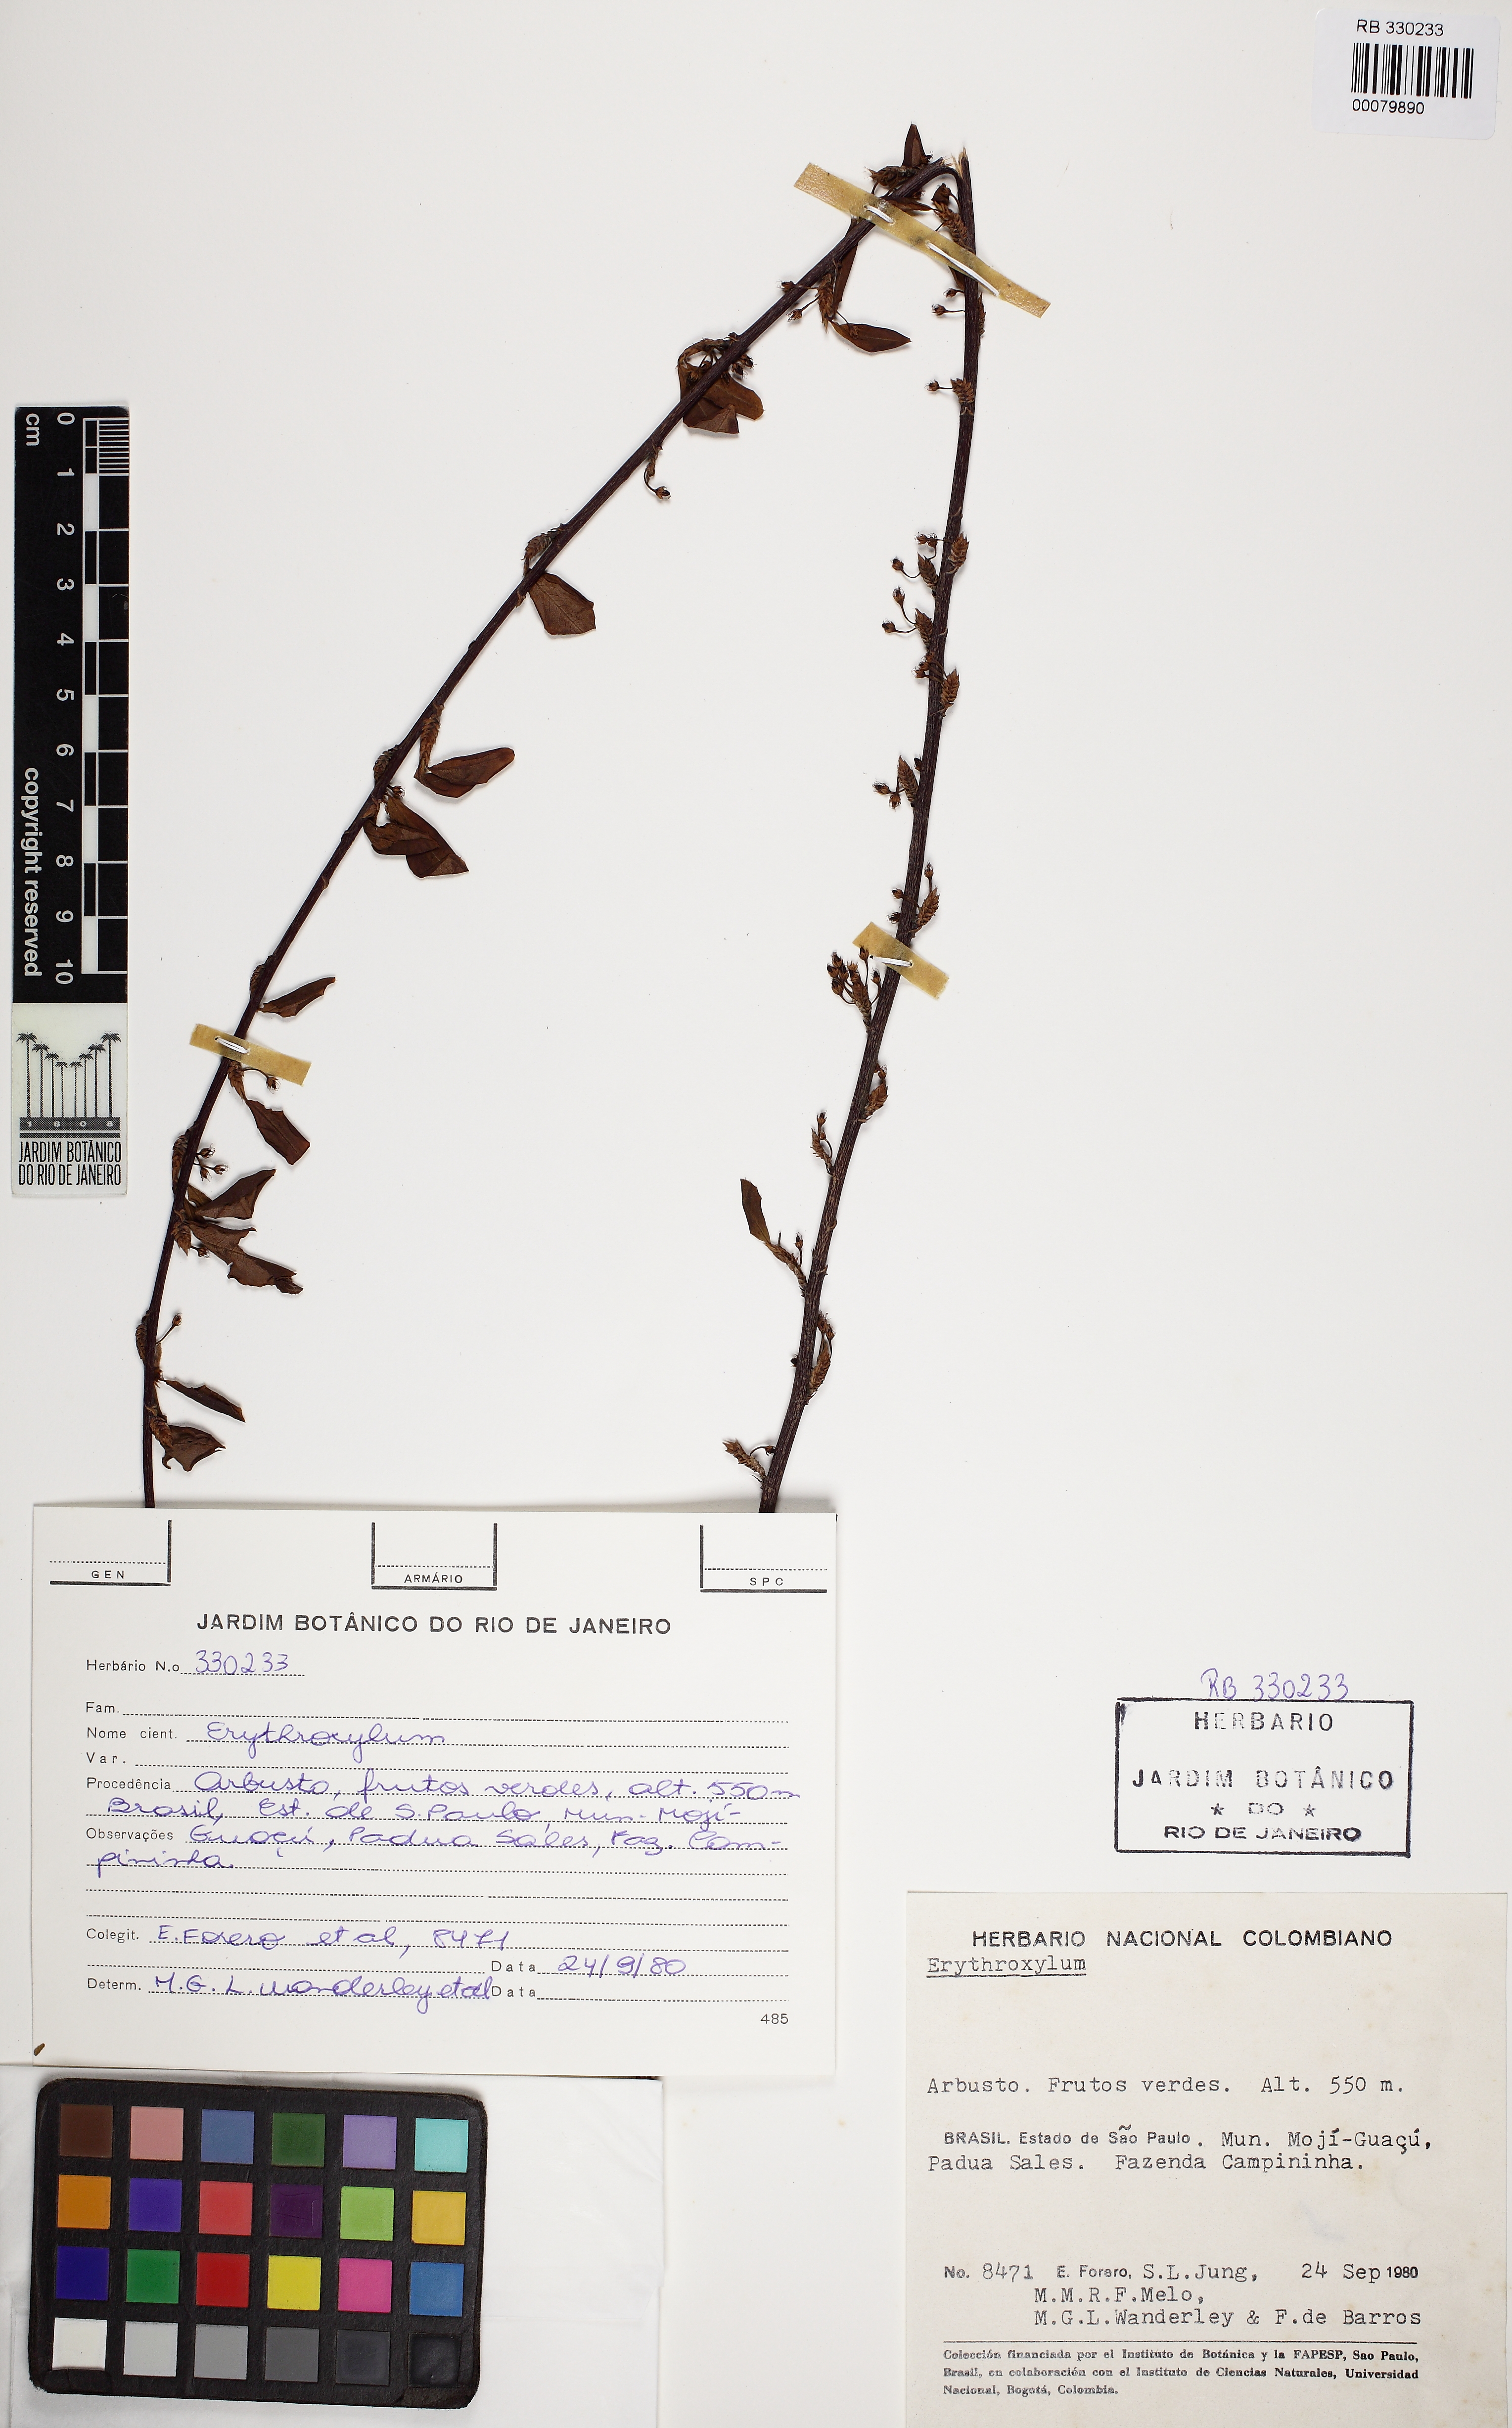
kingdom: Plantae
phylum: Tracheophyta
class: Magnoliopsida
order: Malpighiales
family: Erythroxylaceae
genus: Erythroxylum
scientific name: Erythroxylum pelleterianum
